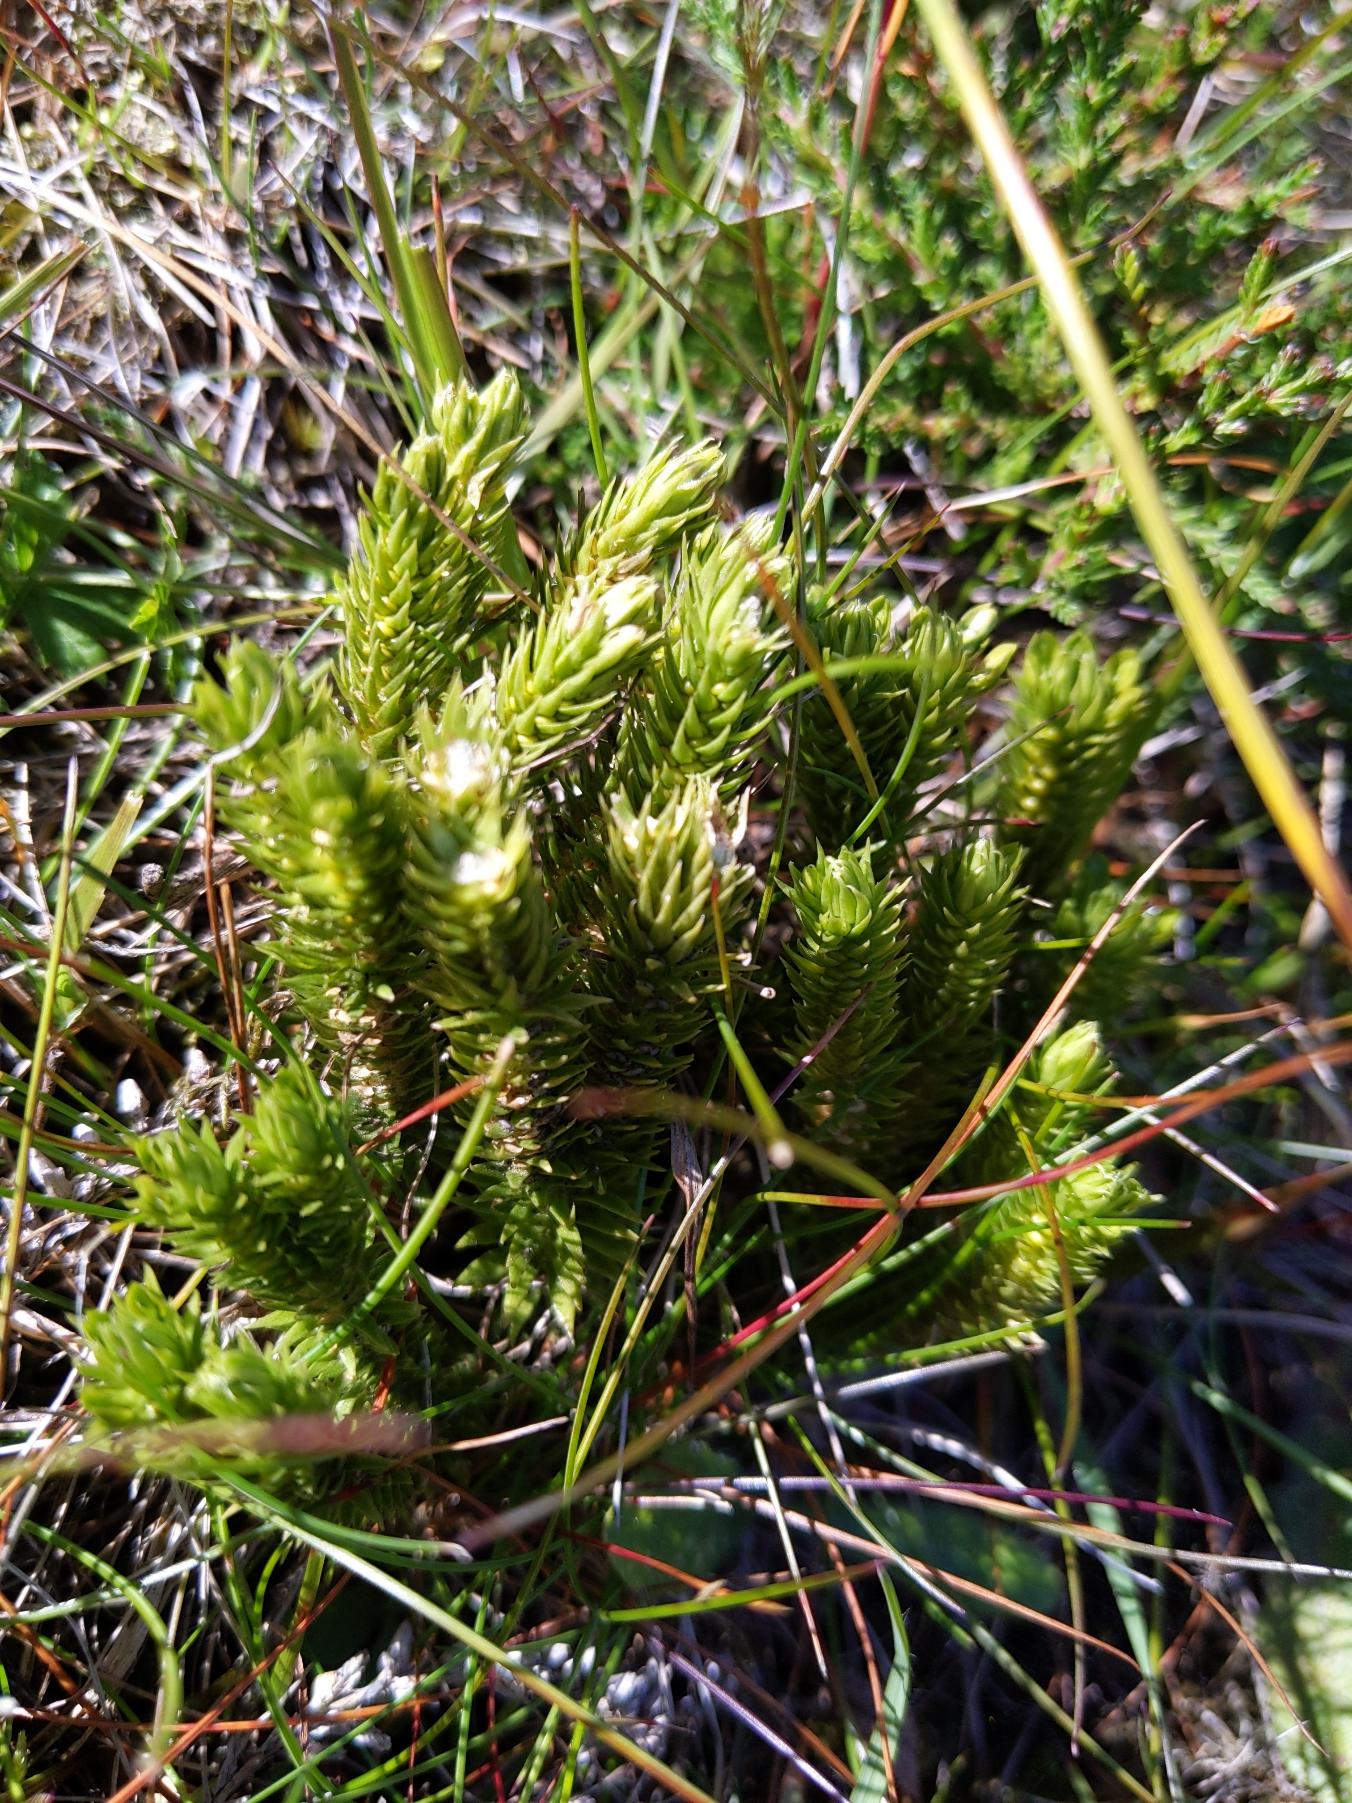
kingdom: Plantae
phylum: Tracheophyta
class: Lycopodiopsida
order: Lycopodiales
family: Lycopodiaceae
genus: Huperzia
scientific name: Huperzia selago
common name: Otteradet ulvefod
